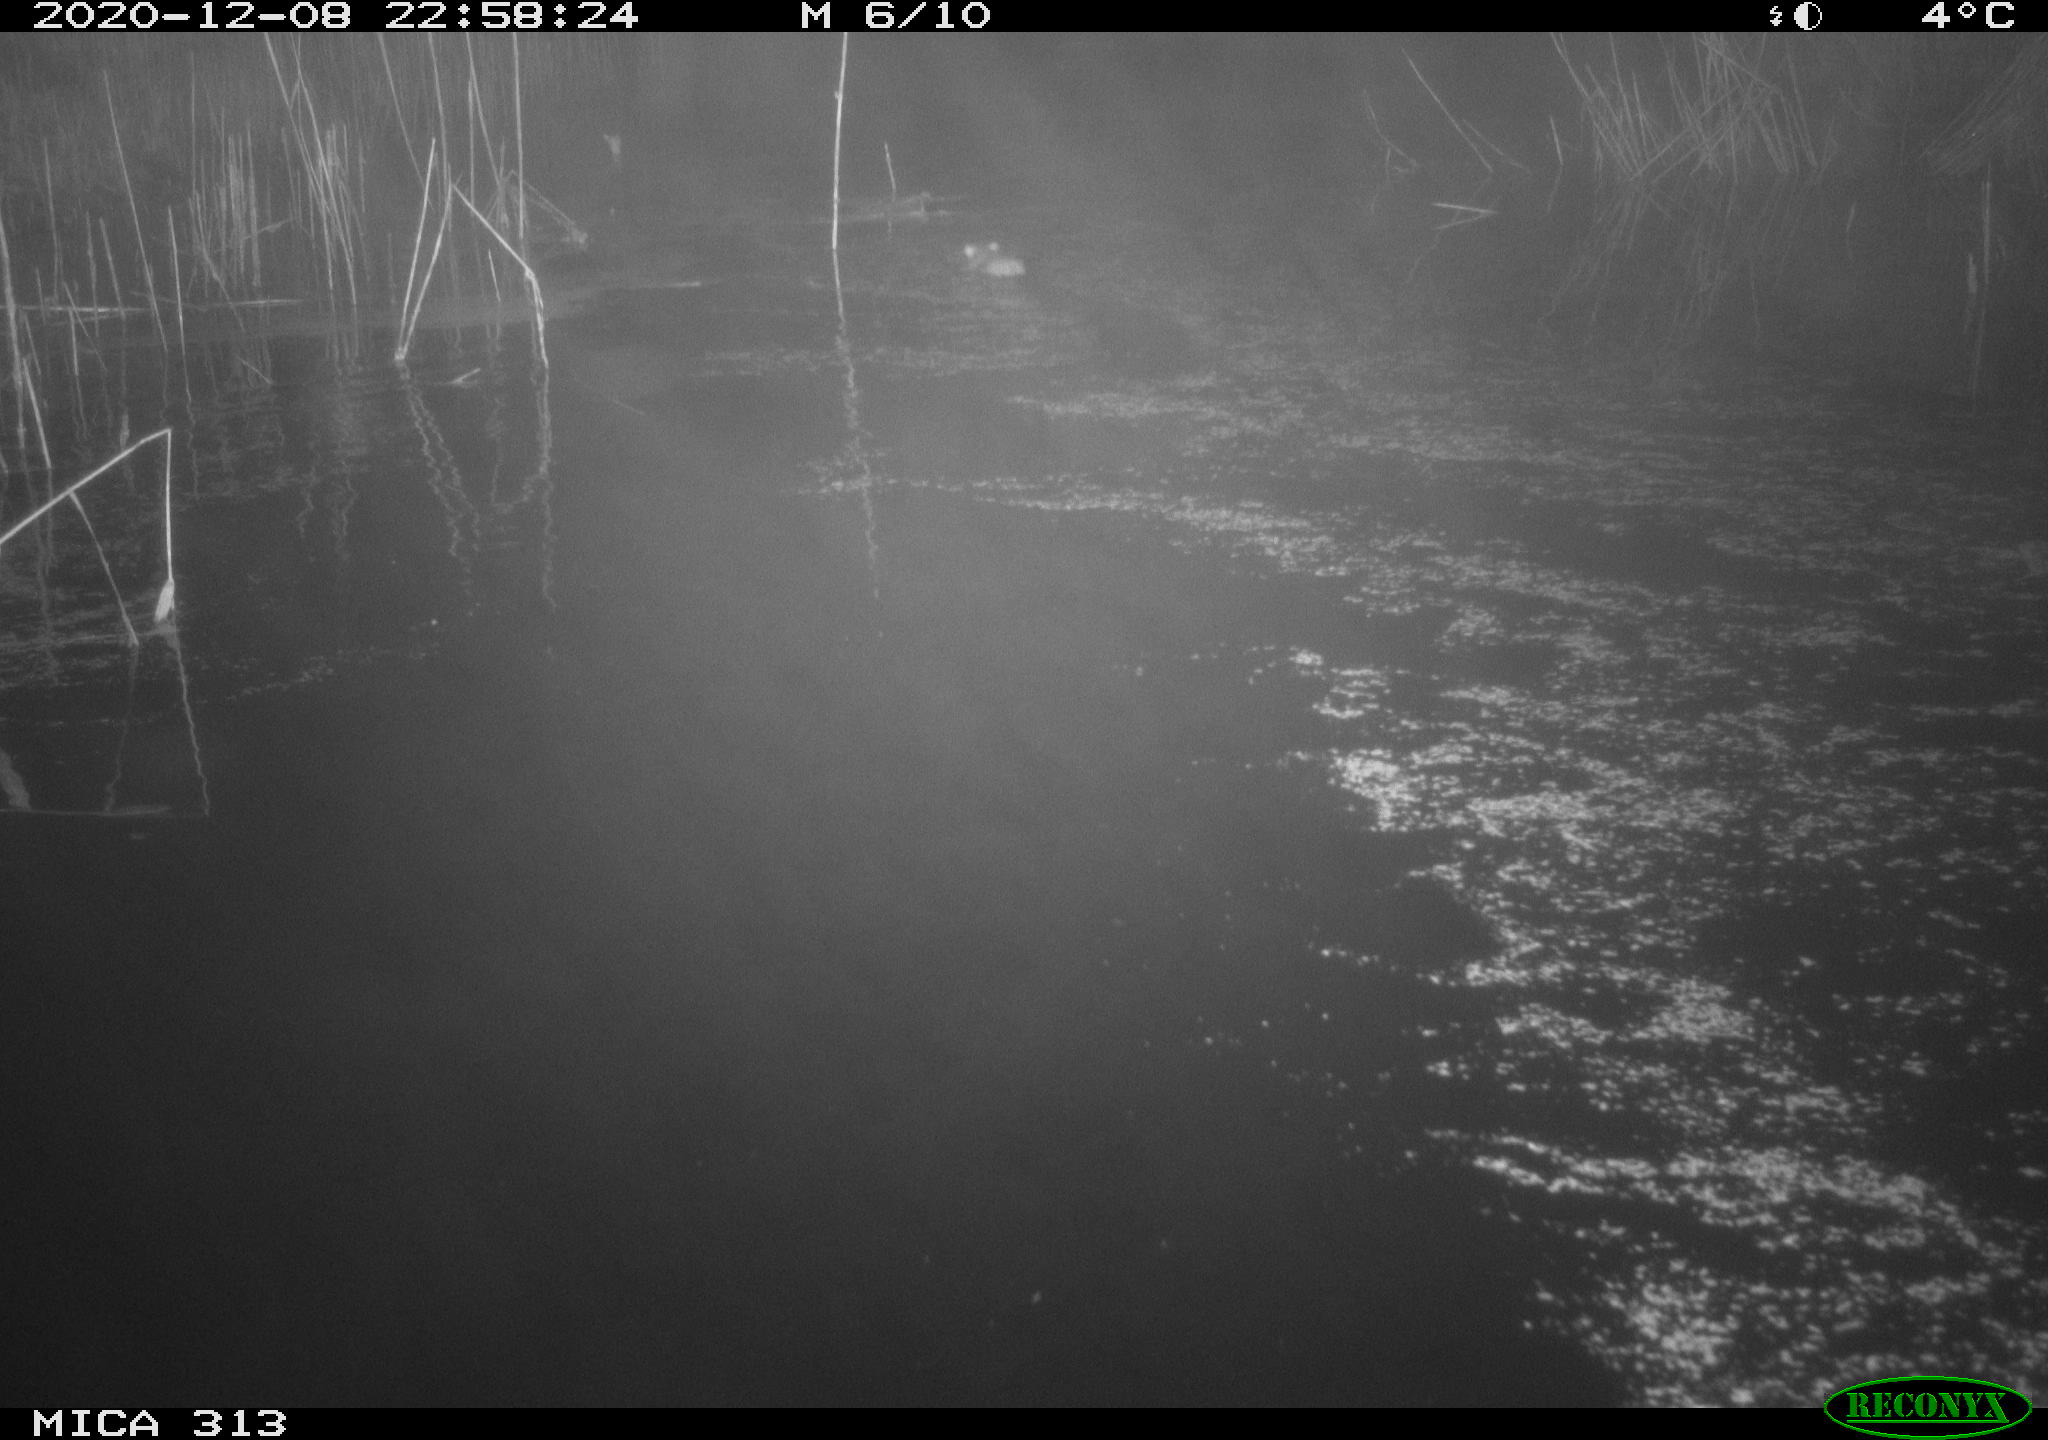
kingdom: Animalia
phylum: Chordata
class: Mammalia
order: Rodentia
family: Muridae
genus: Rattus
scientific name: Rattus norvegicus
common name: Brown rat
